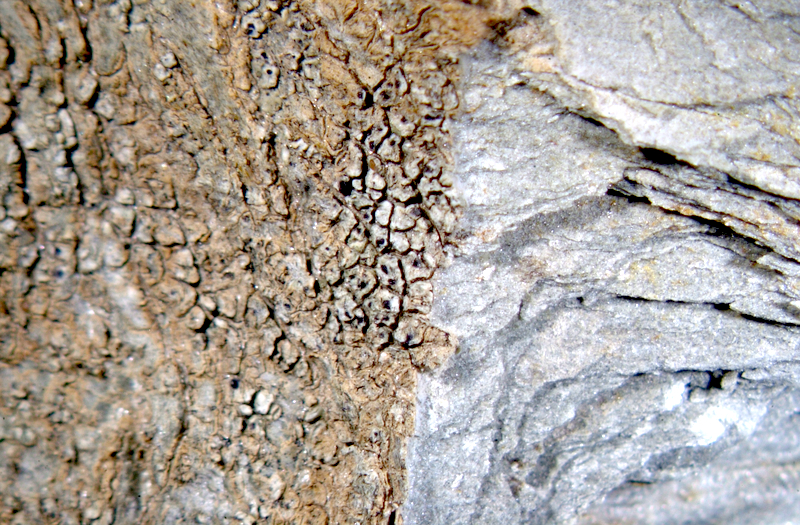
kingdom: Fungi
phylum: Ascomycota
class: Lecanoromycetes
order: Lecanorales
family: Parmeliaceae
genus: Lichen
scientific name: Lichen
